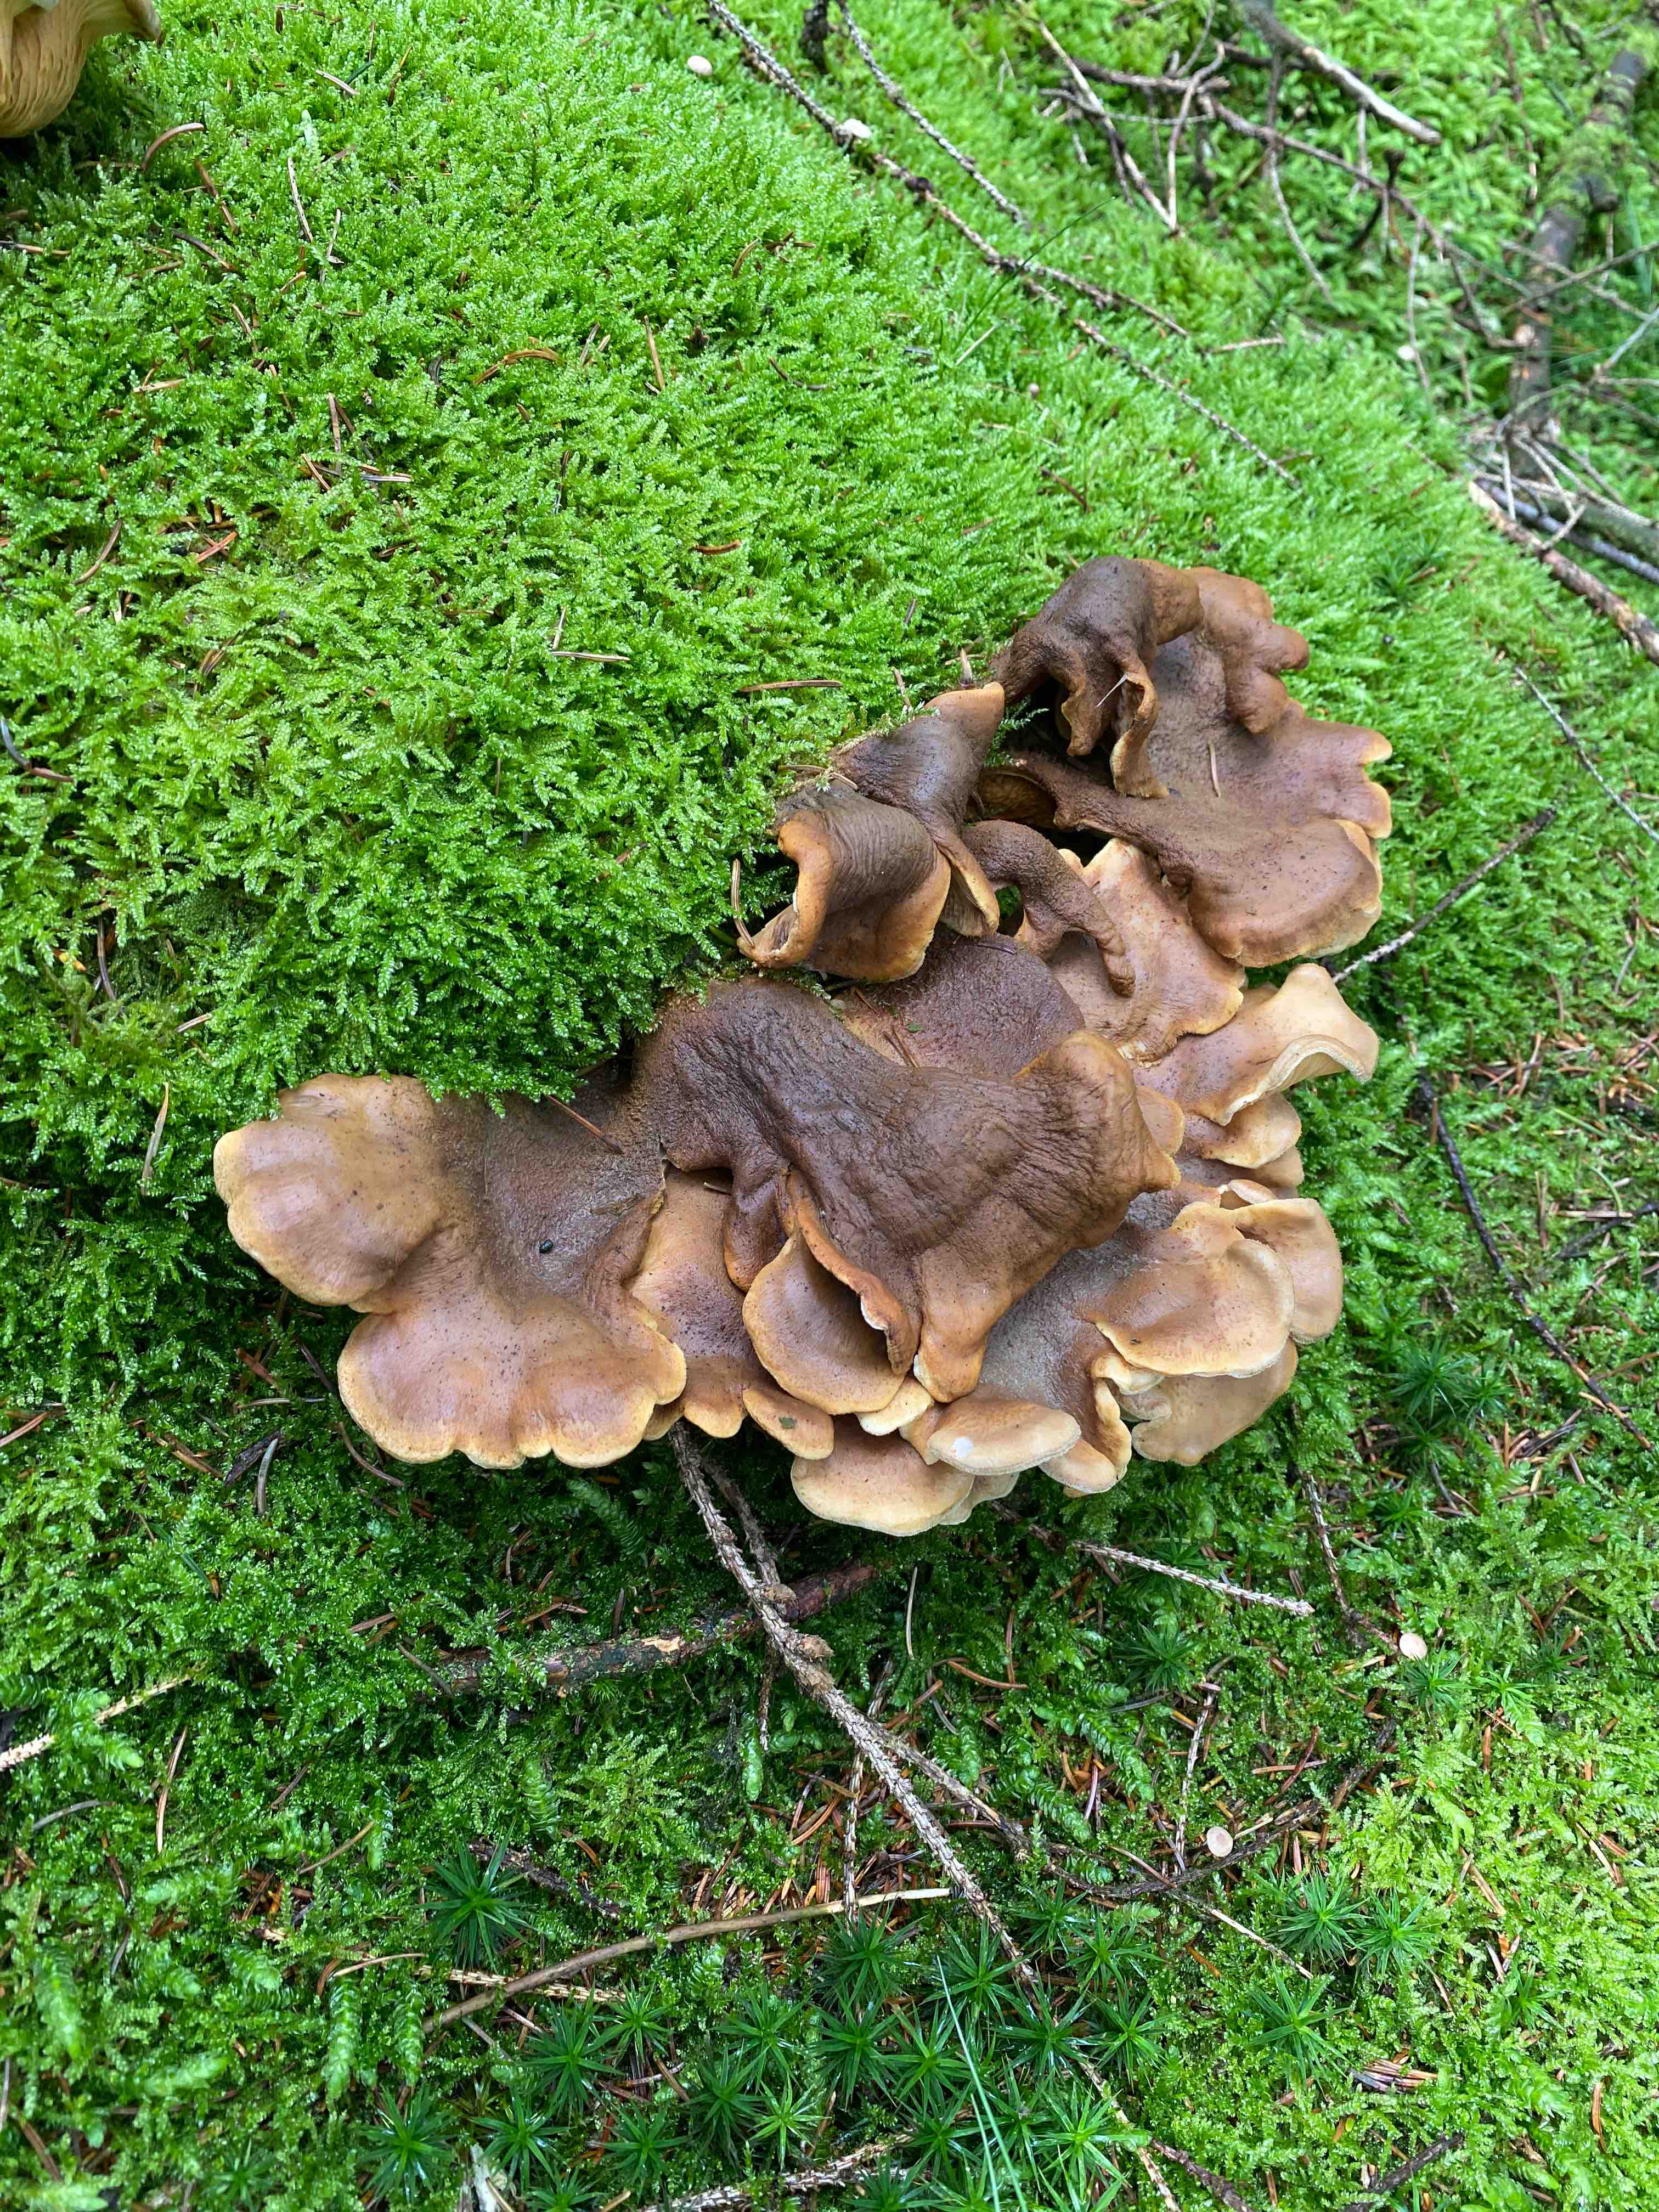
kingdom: Fungi
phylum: Basidiomycota
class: Agaricomycetes
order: Boletales
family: Tapinellaceae
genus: Tapinella
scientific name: Tapinella panuoides
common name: tømmer-viftesvamp
